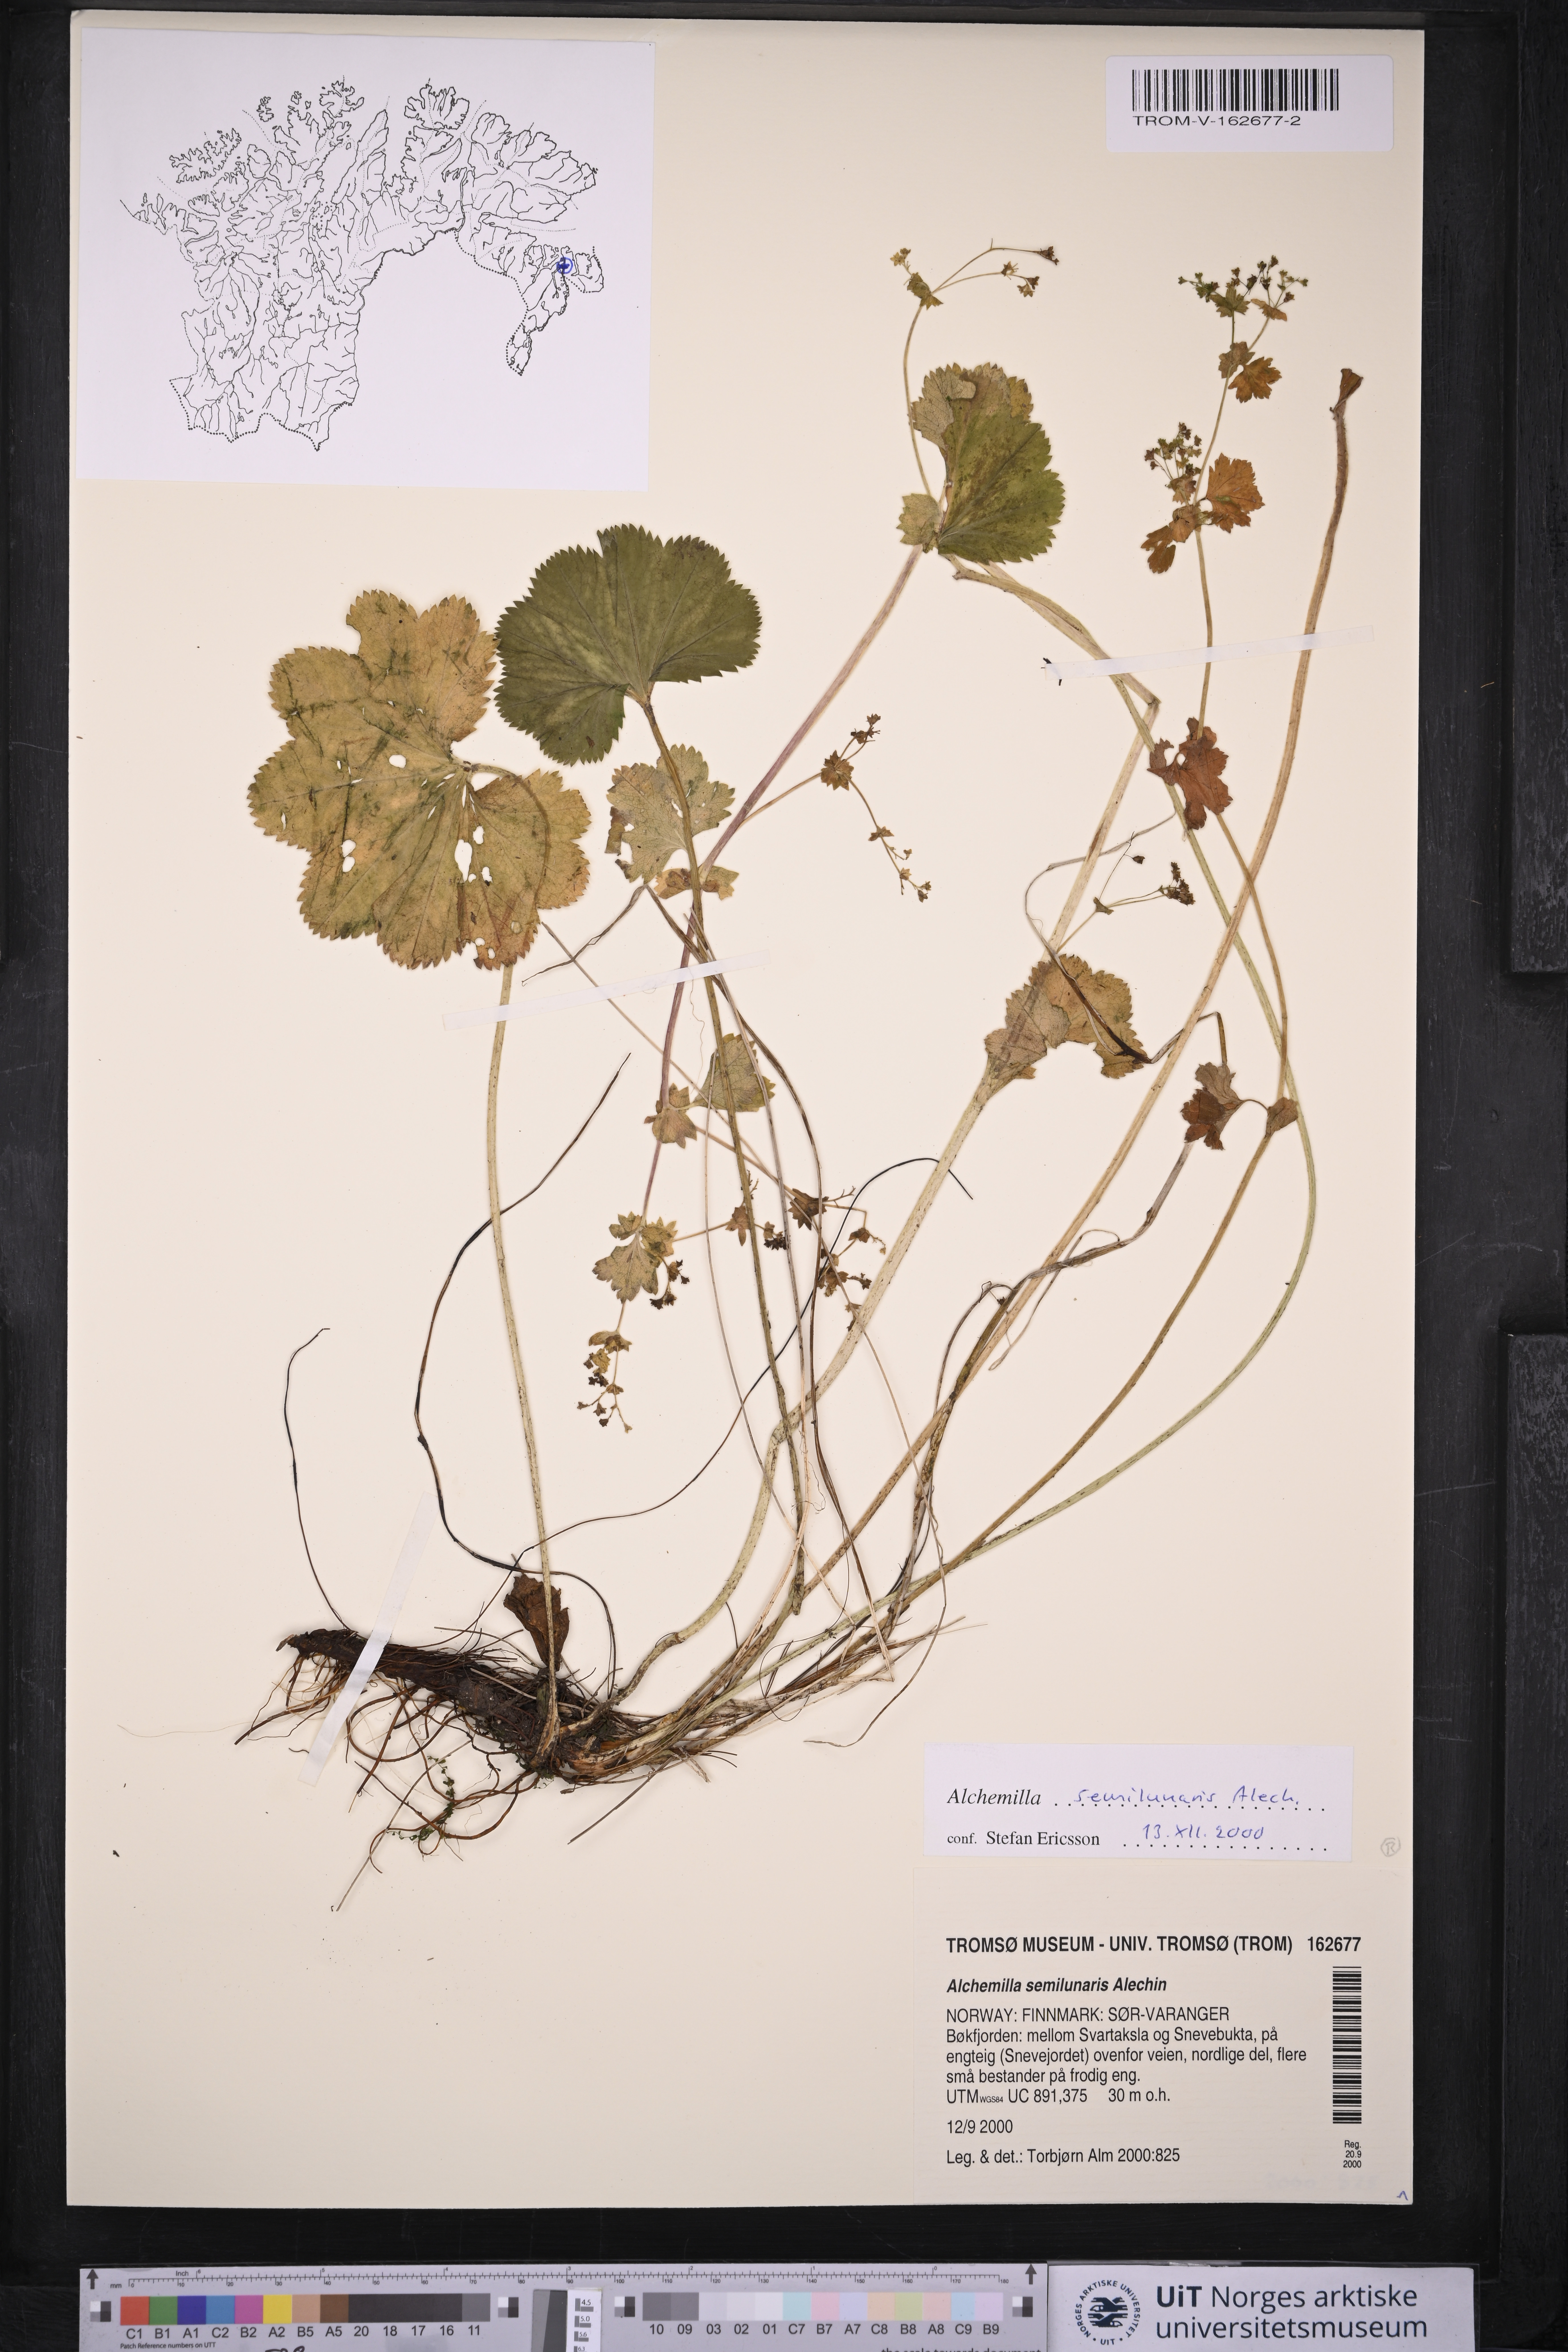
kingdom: Plantae
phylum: Tracheophyta
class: Magnoliopsida
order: Rosales
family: Rosaceae
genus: Alchemilla
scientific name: Alchemilla semilunaris
